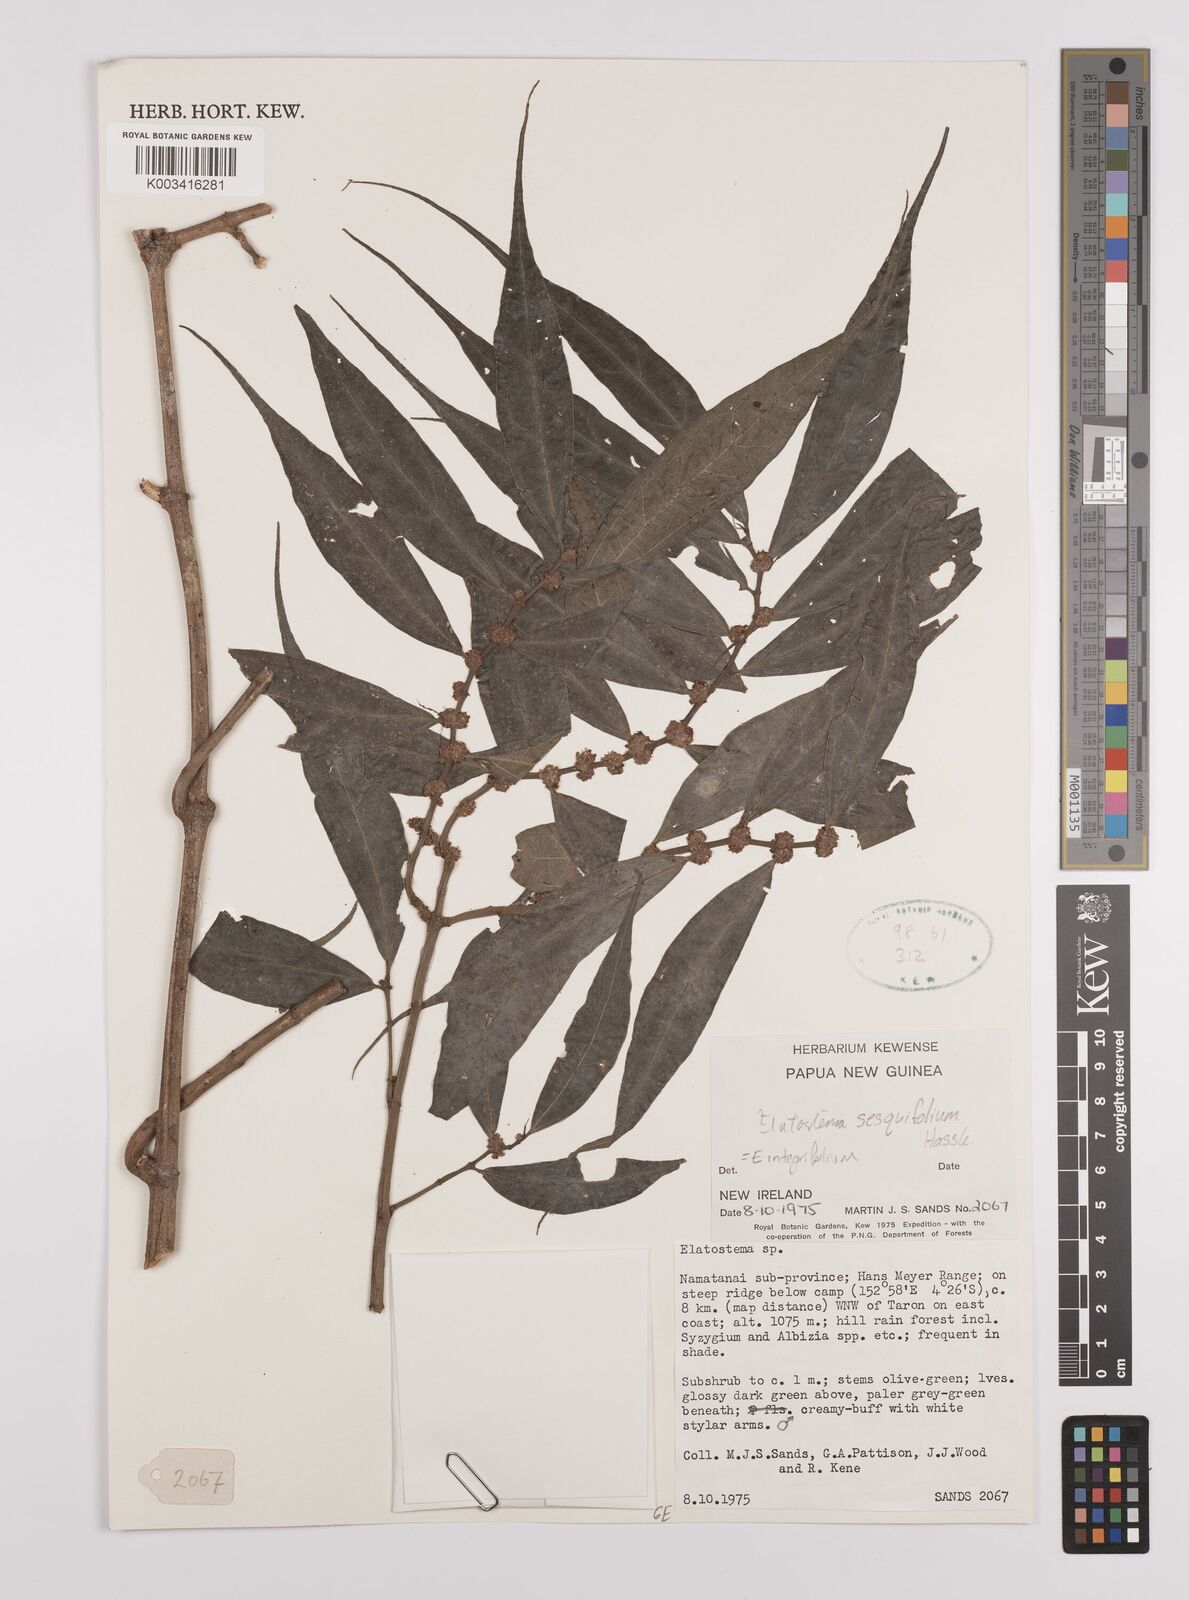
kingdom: Plantae
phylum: Tracheophyta
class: Magnoliopsida
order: Rosales
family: Urticaceae
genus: Elatostema
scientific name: Elatostema integrifolium
